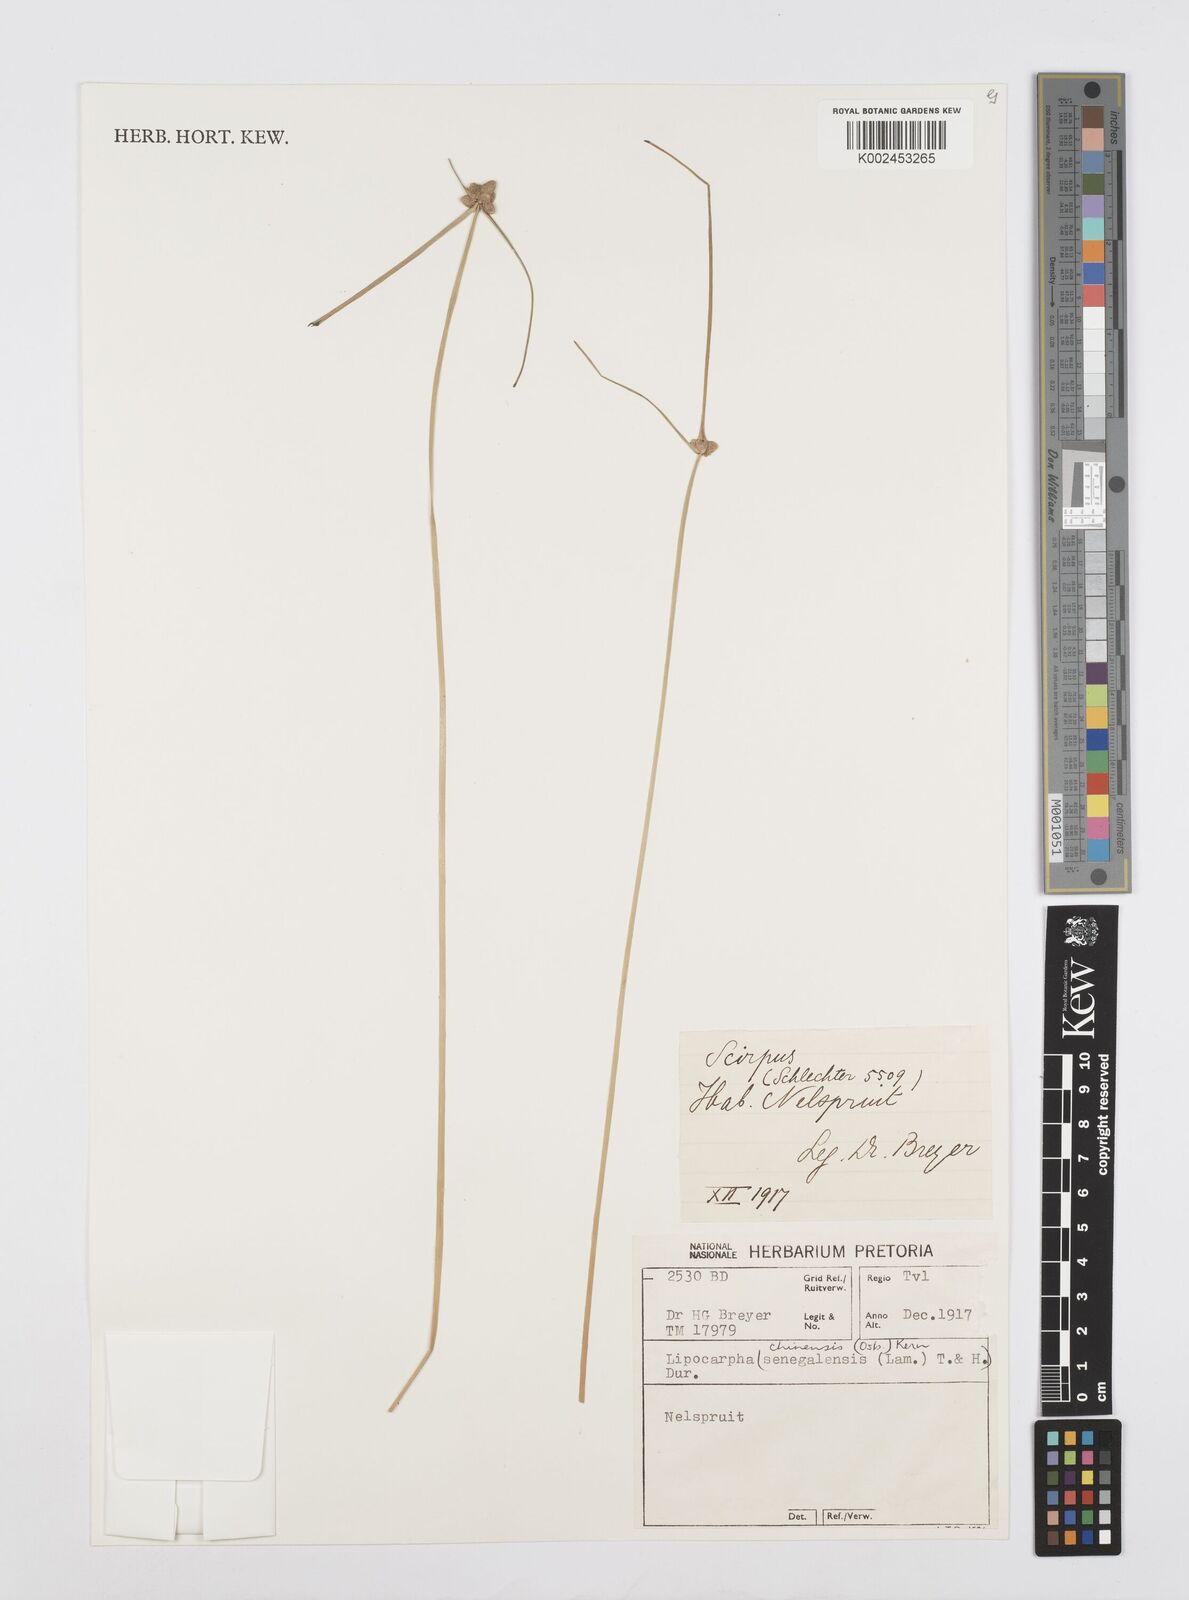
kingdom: Plantae
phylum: Tracheophyta
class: Liliopsida
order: Poales
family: Cyperaceae
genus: Cyperus
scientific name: Cyperus albescens
